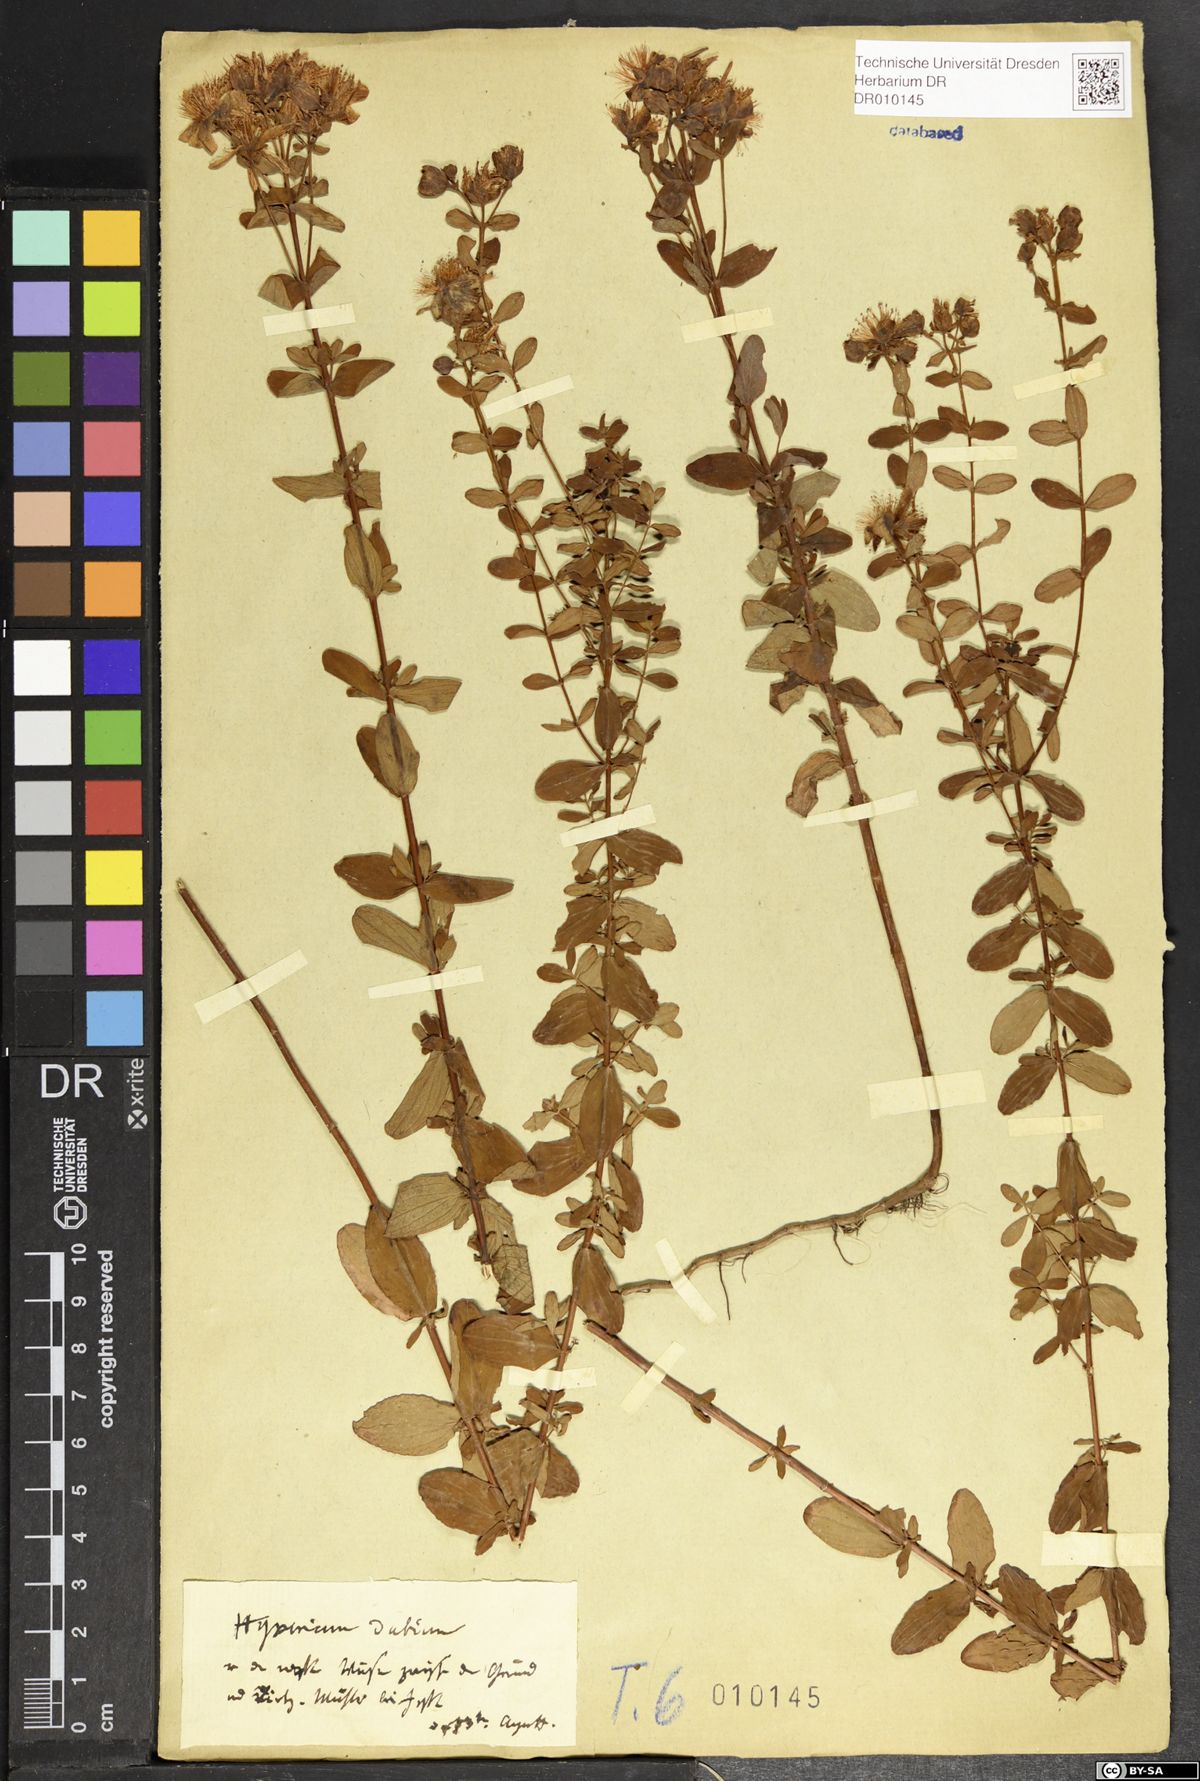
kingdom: Plantae
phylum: Tracheophyta
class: Magnoliopsida
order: Malpighiales
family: Hypericaceae
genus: Hypericum
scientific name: Hypericum maculatum
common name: Imperforate st. john's-wort
